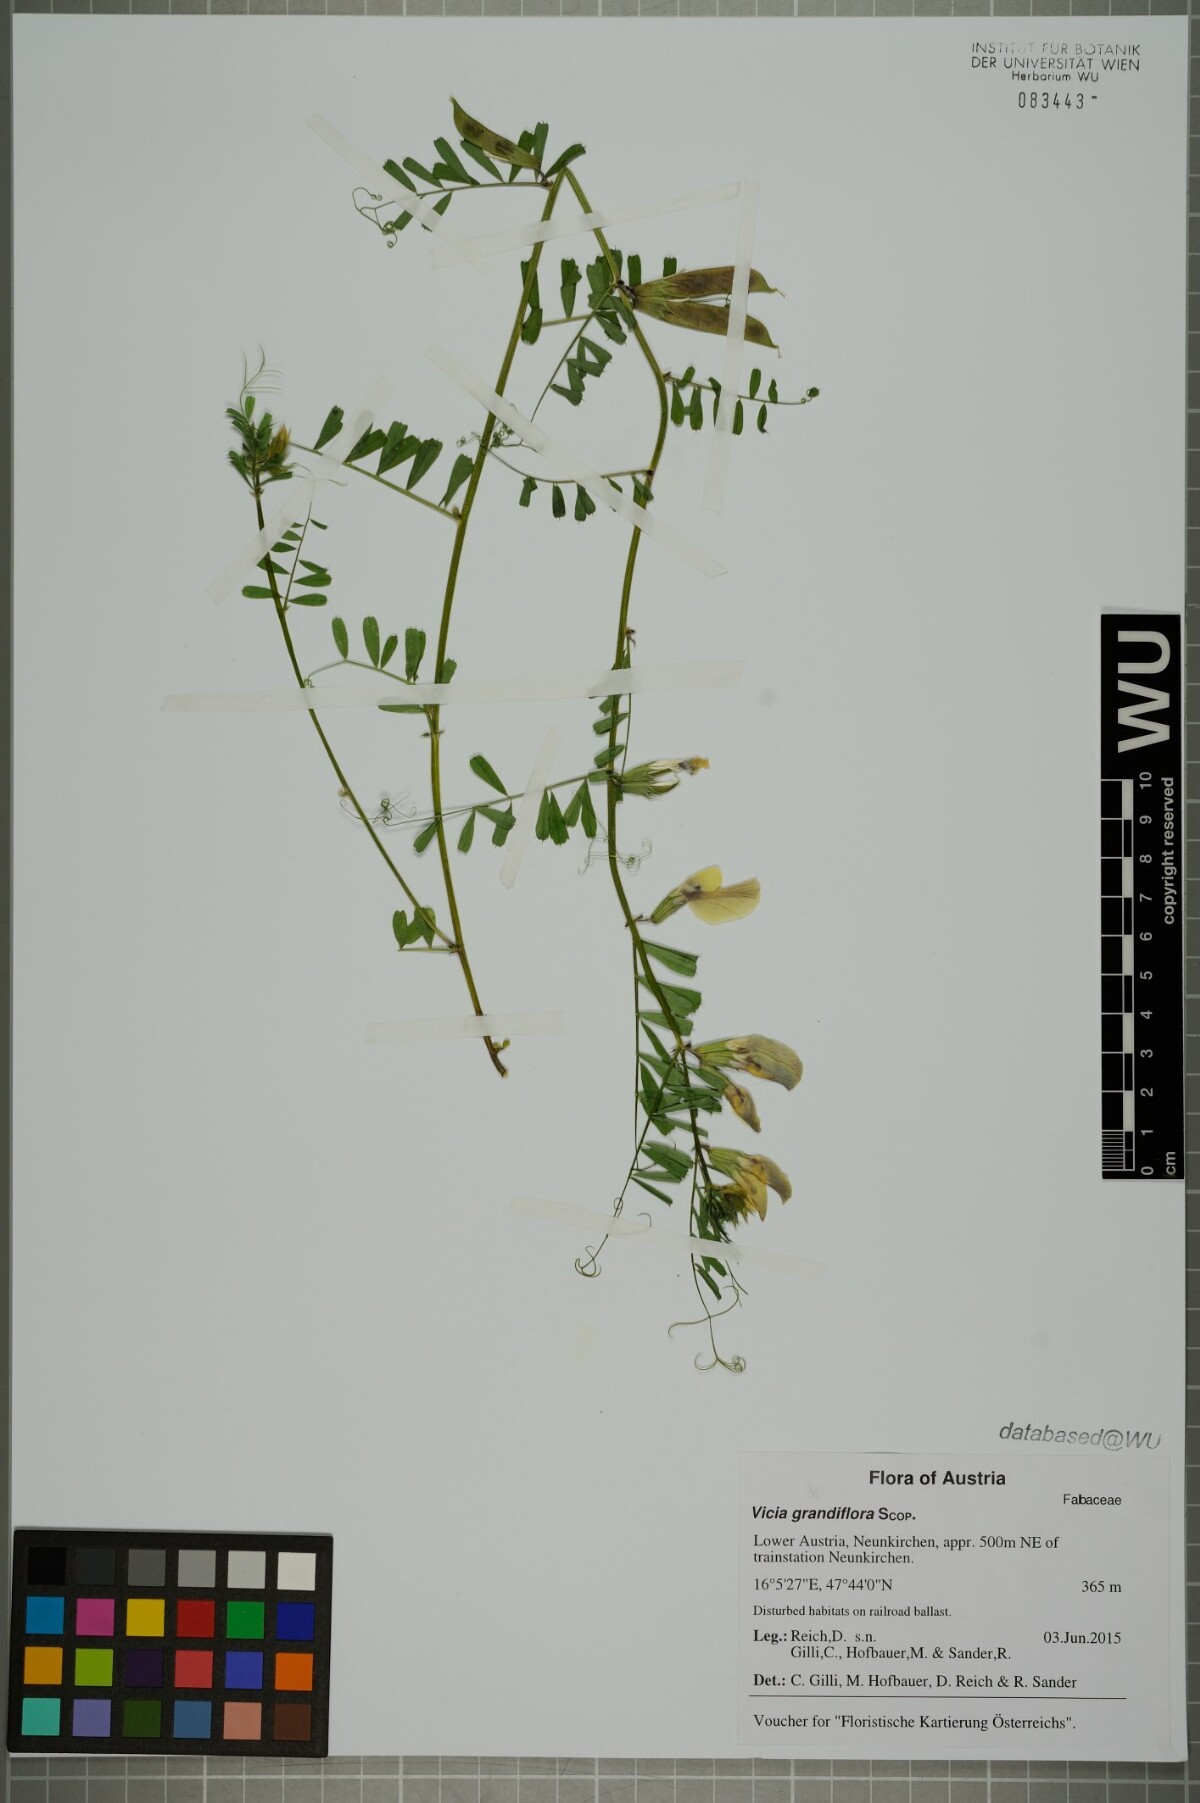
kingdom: Plantae
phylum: Tracheophyta
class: Magnoliopsida
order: Fabales
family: Fabaceae
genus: Vicia
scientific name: Vicia grandiflora
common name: Large yellow vetch
